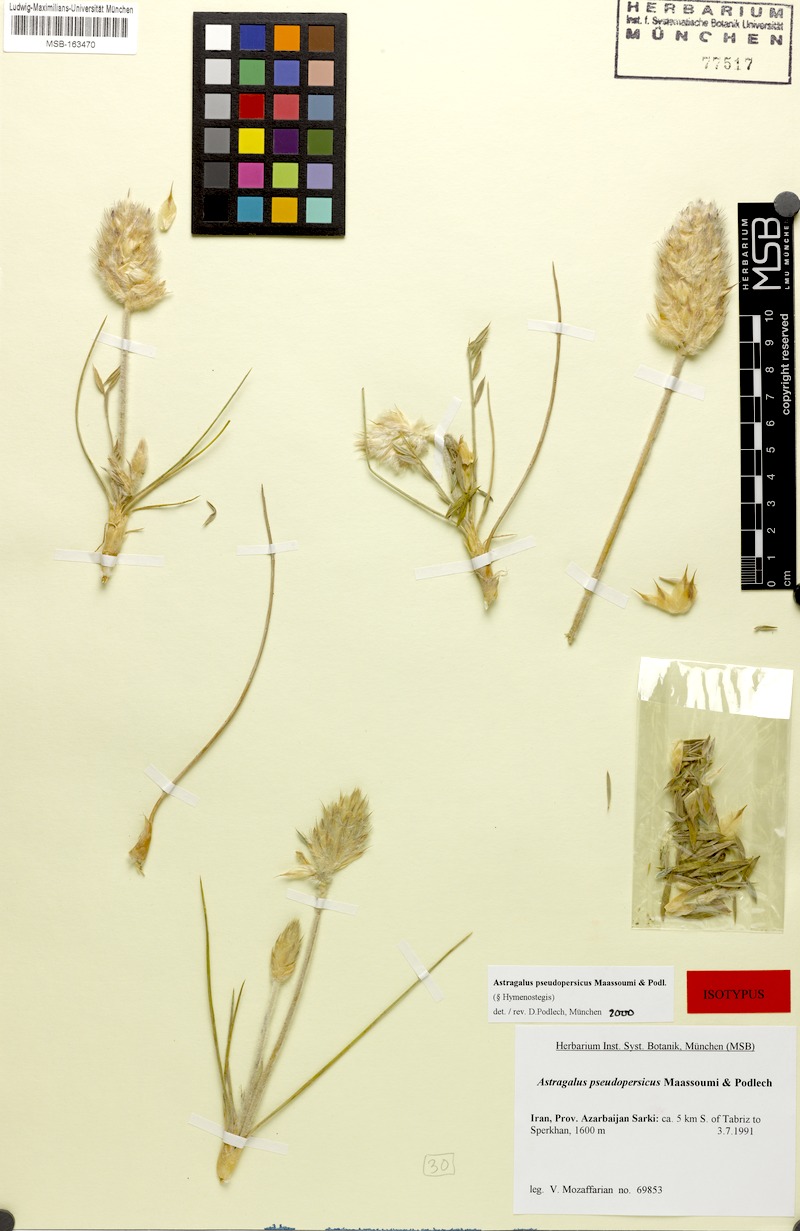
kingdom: Plantae
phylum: Tracheophyta
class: Magnoliopsida
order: Fabales
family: Fabaceae
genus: Astragalus
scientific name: Astragalus pseudopersicus
